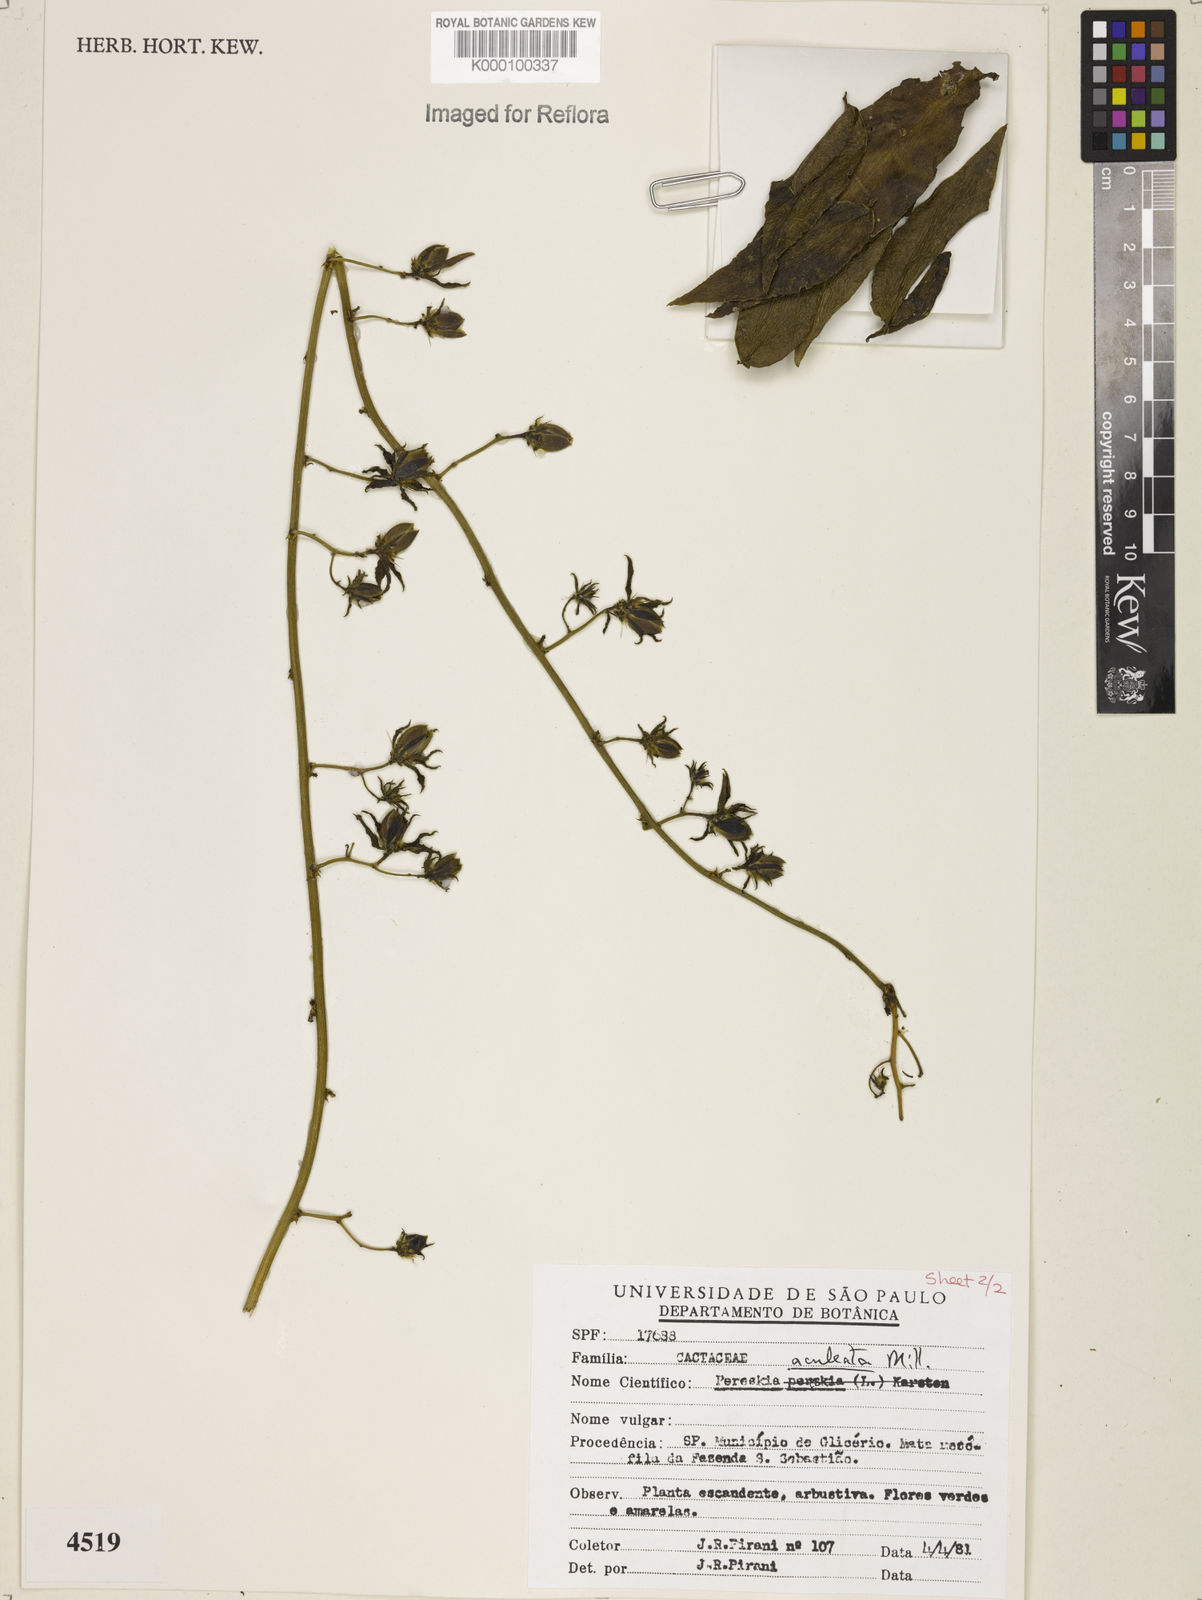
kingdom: Plantae
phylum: Tracheophyta
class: Magnoliopsida
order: Caryophyllales
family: Cactaceae
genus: Pereskia
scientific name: Pereskia aculeata
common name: Barbados gooseberry
